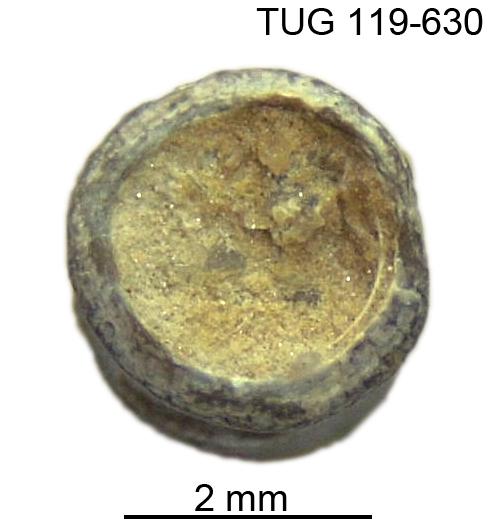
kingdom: Animalia
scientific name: Animalia
